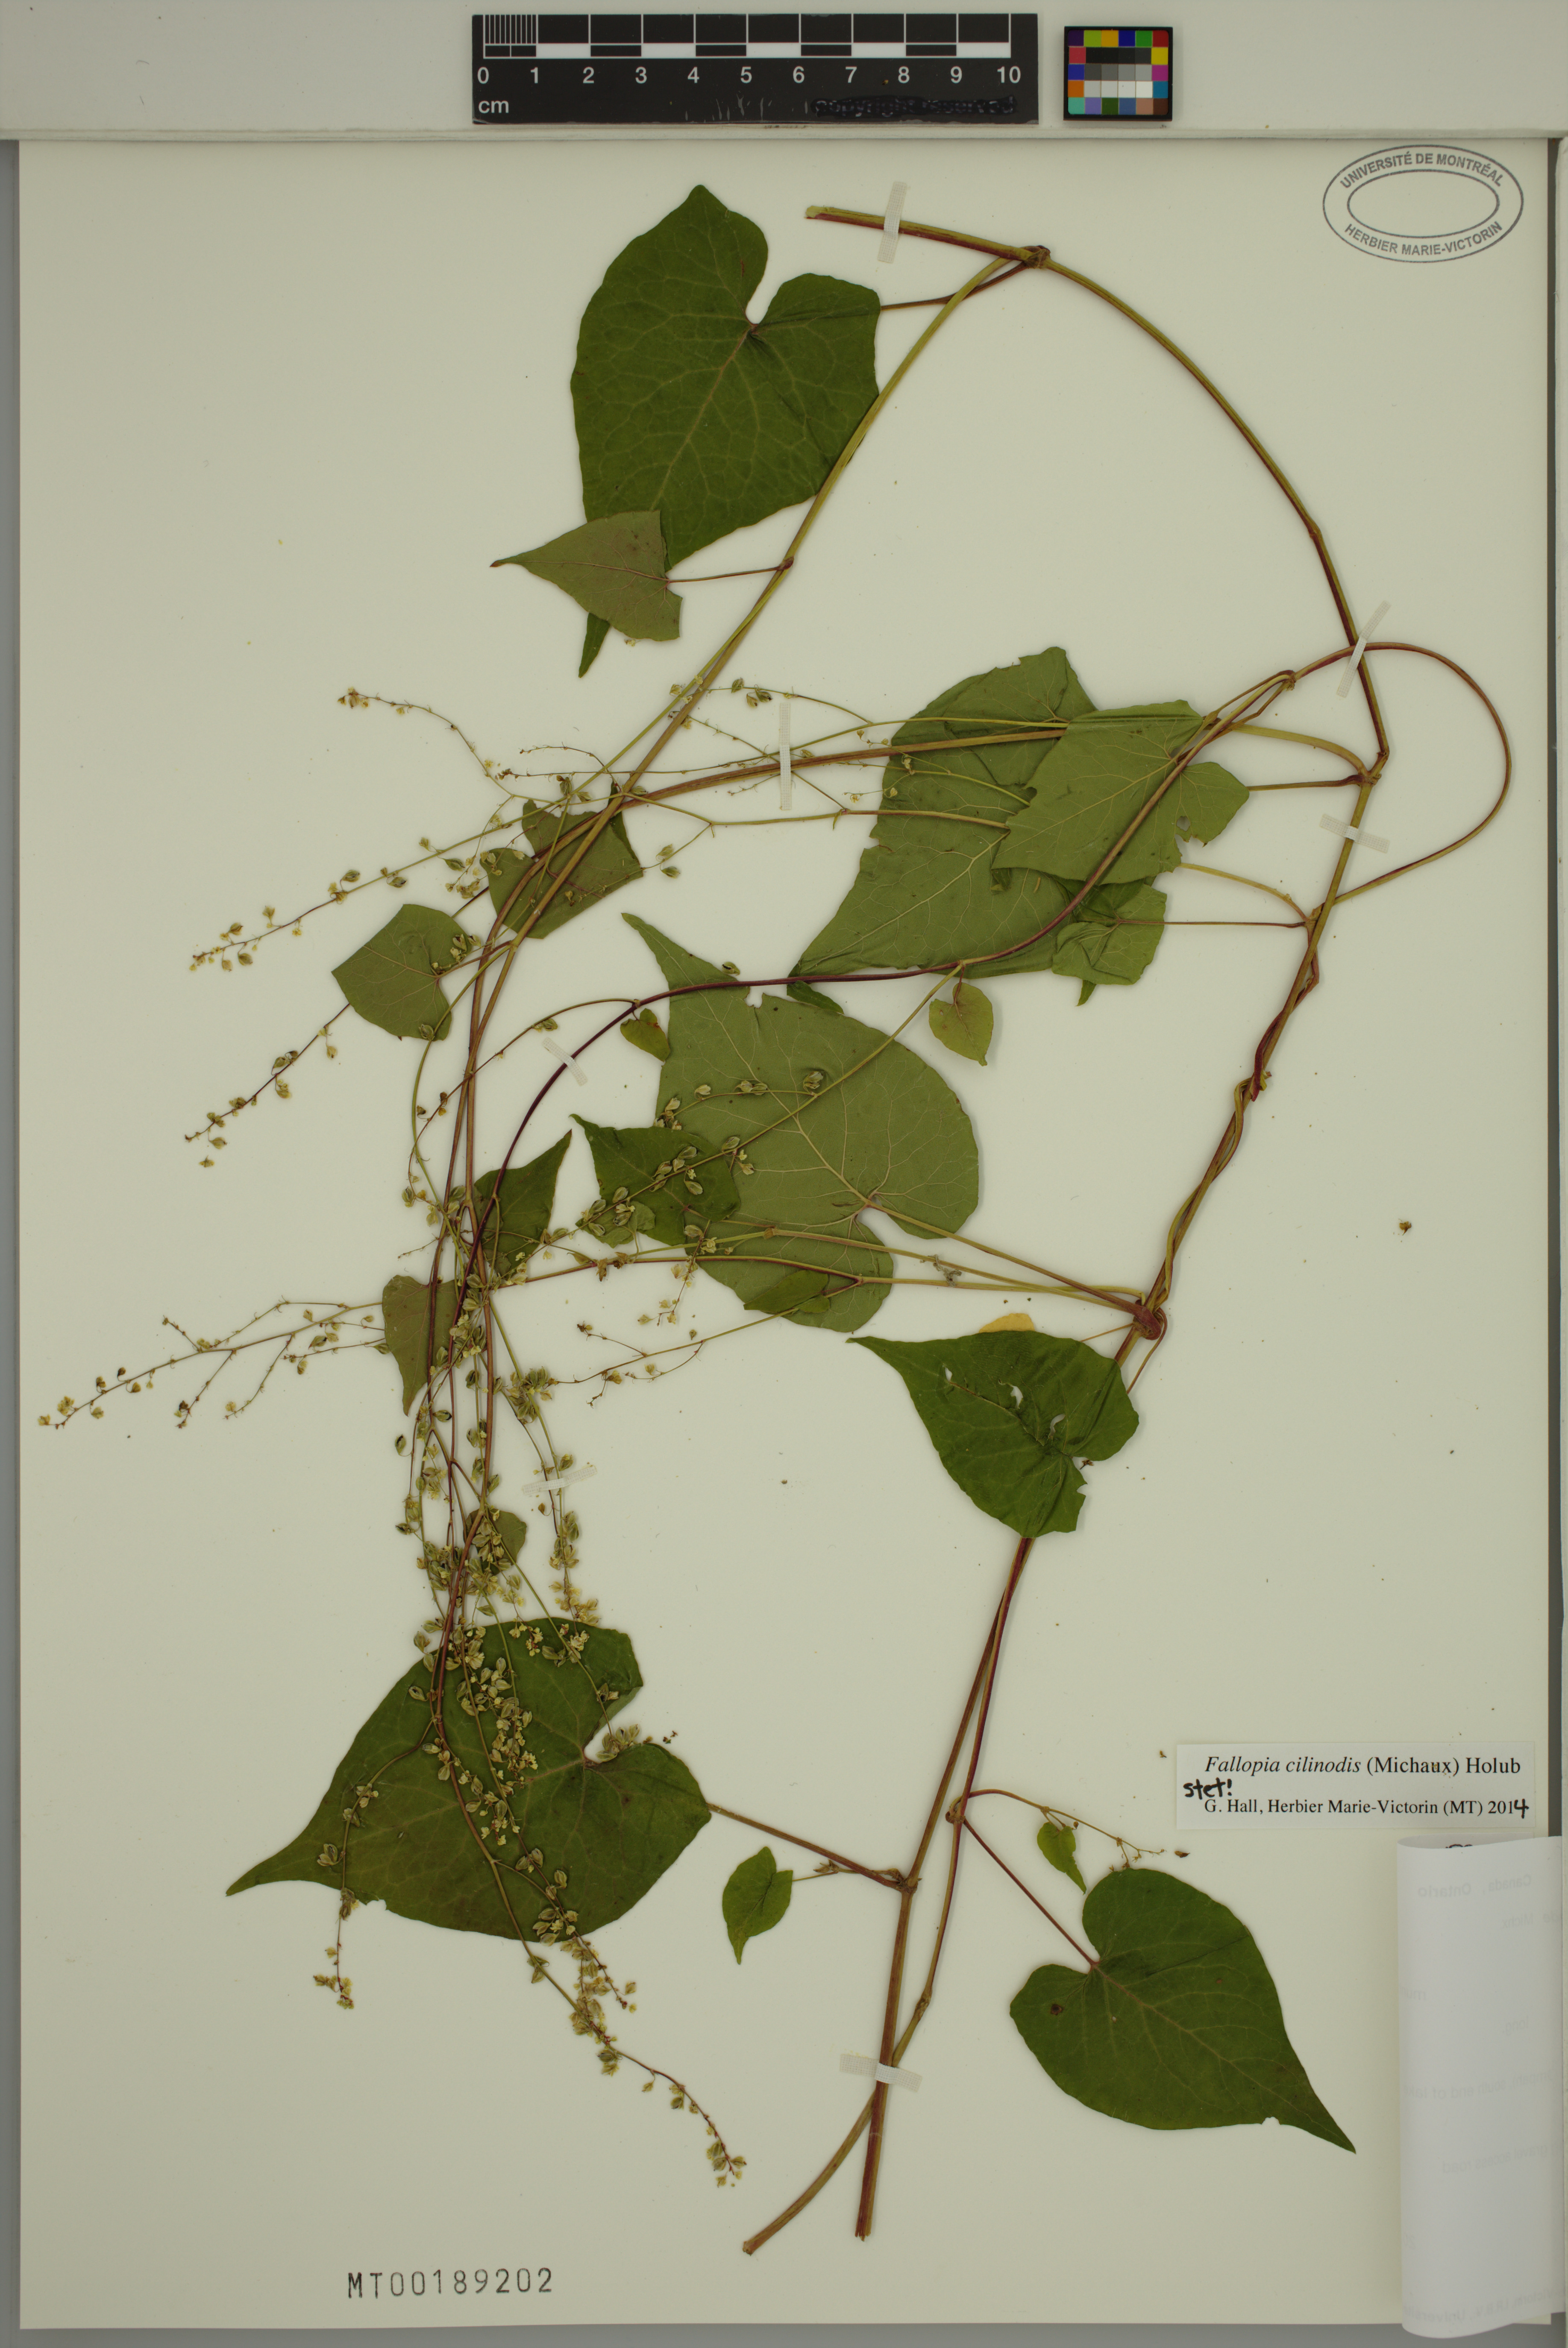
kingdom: Plantae
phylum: Tracheophyta
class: Magnoliopsida
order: Caryophyllales
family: Polygonaceae
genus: Parogonum
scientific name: Parogonum ciliinode
